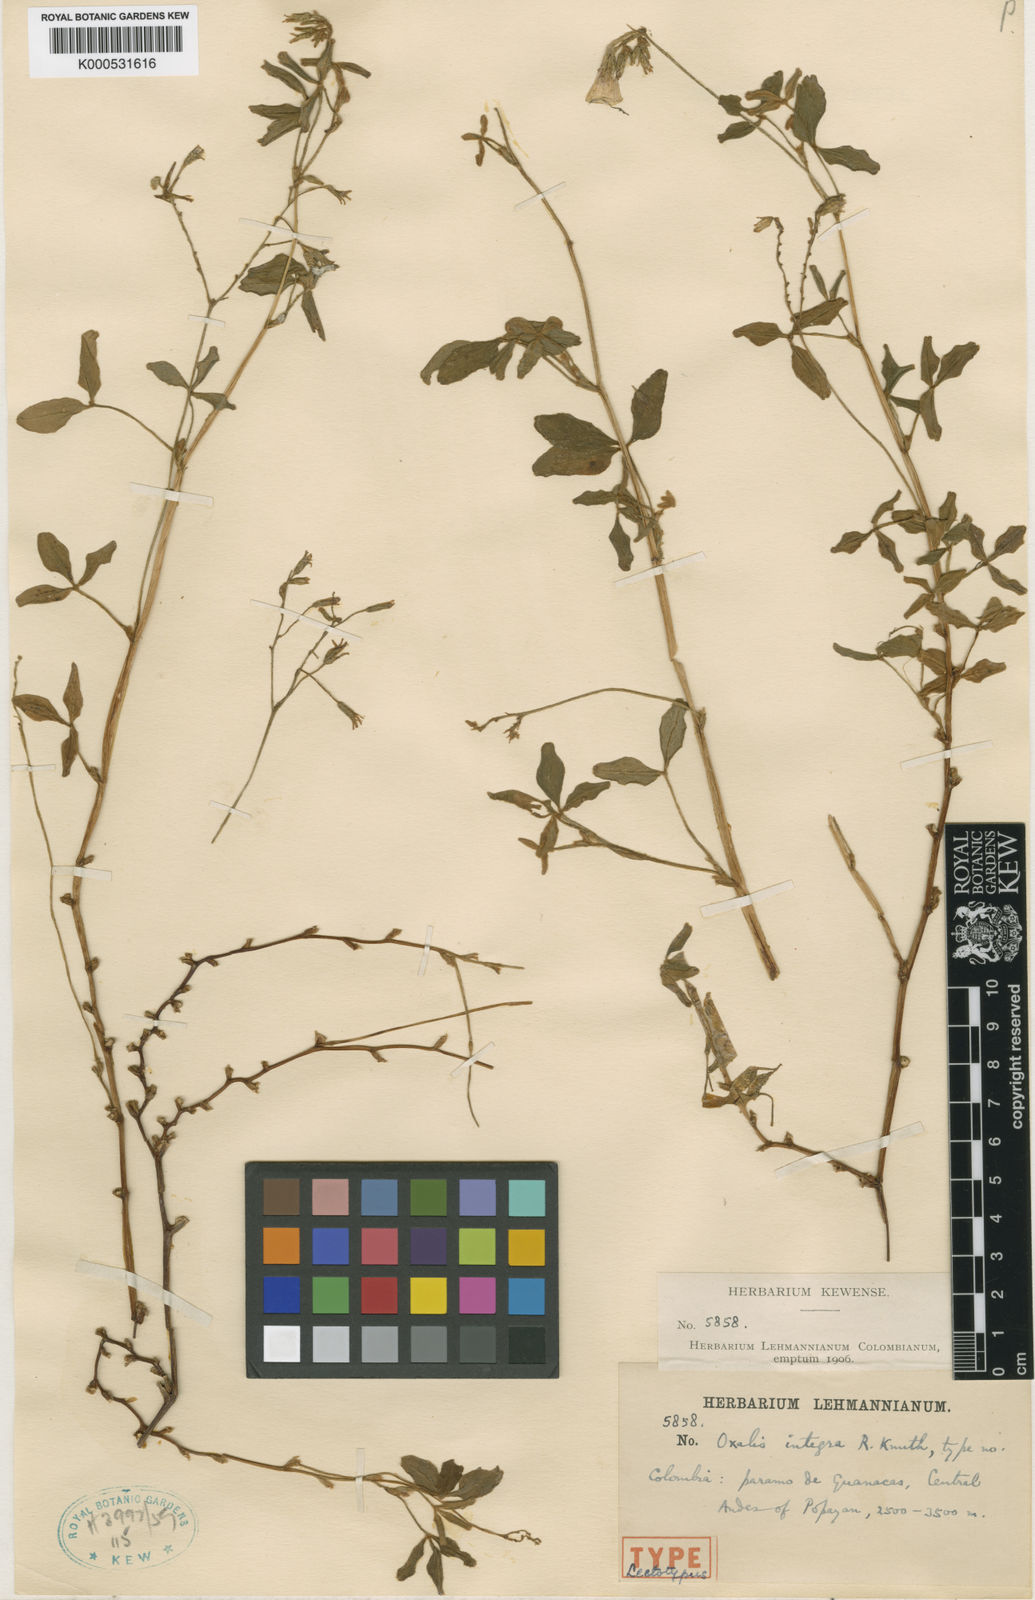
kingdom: Plantae
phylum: Tracheophyta
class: Magnoliopsida
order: Oxalidales
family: Oxalidaceae
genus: Oxalis
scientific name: Oxalis integra
